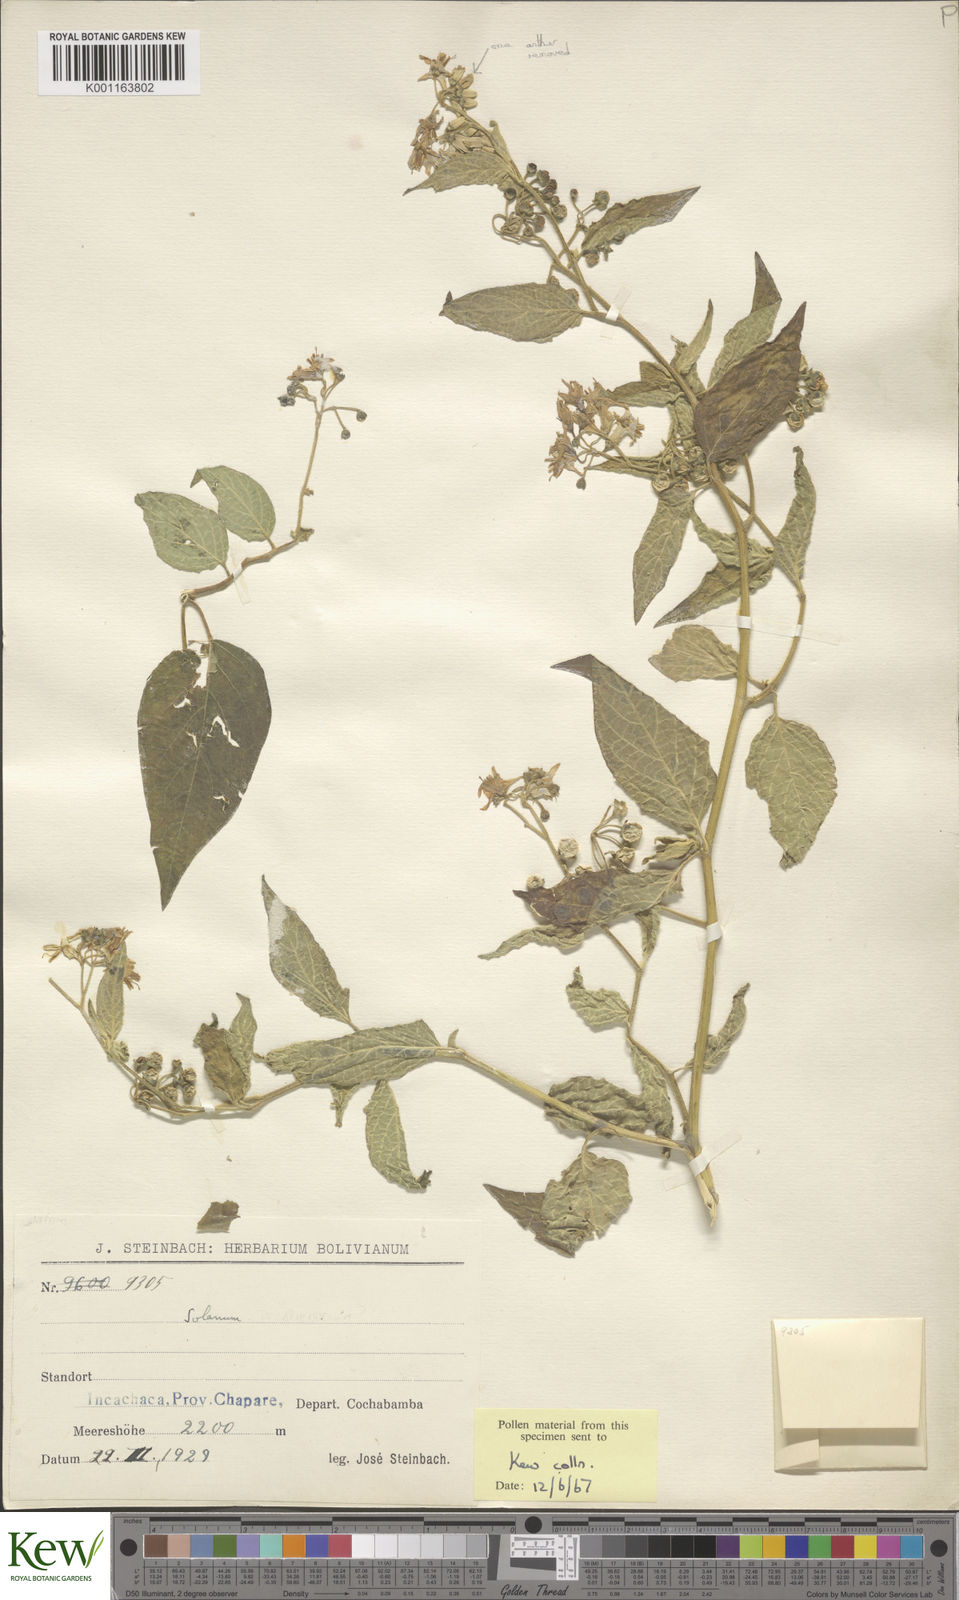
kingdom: Plantae
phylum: Tracheophyta
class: Magnoliopsida
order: Solanales
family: Solanaceae
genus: Solanum
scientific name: Solanum cochabambense
